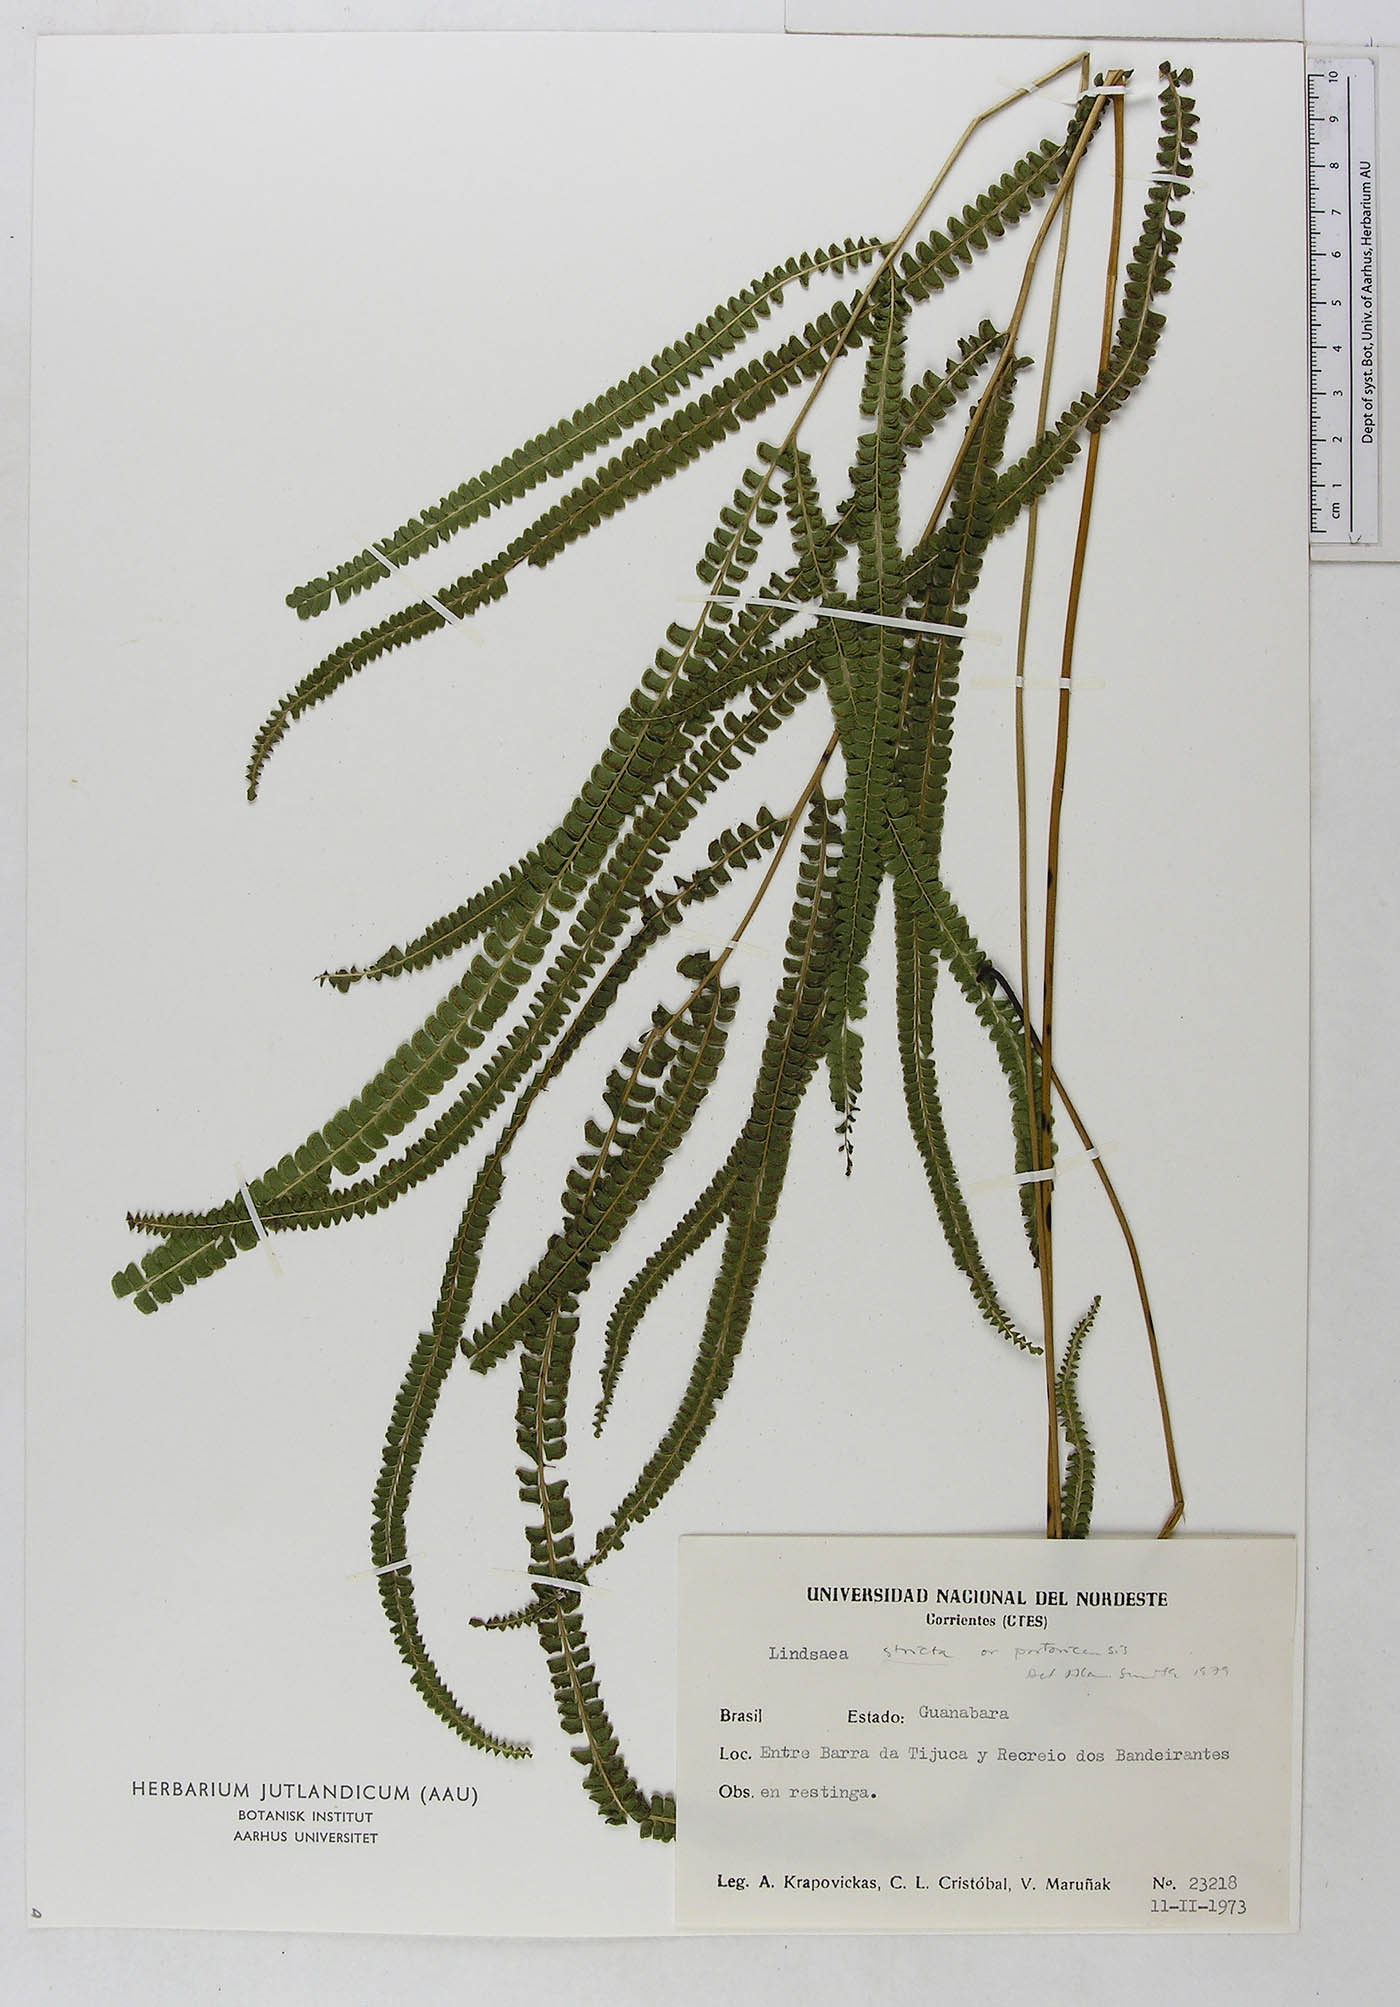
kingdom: Plantae
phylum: Tracheophyta
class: Polypodiopsida
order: Polypodiales
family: Dennstaedtiaceae
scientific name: Dennstaedtiaceae
